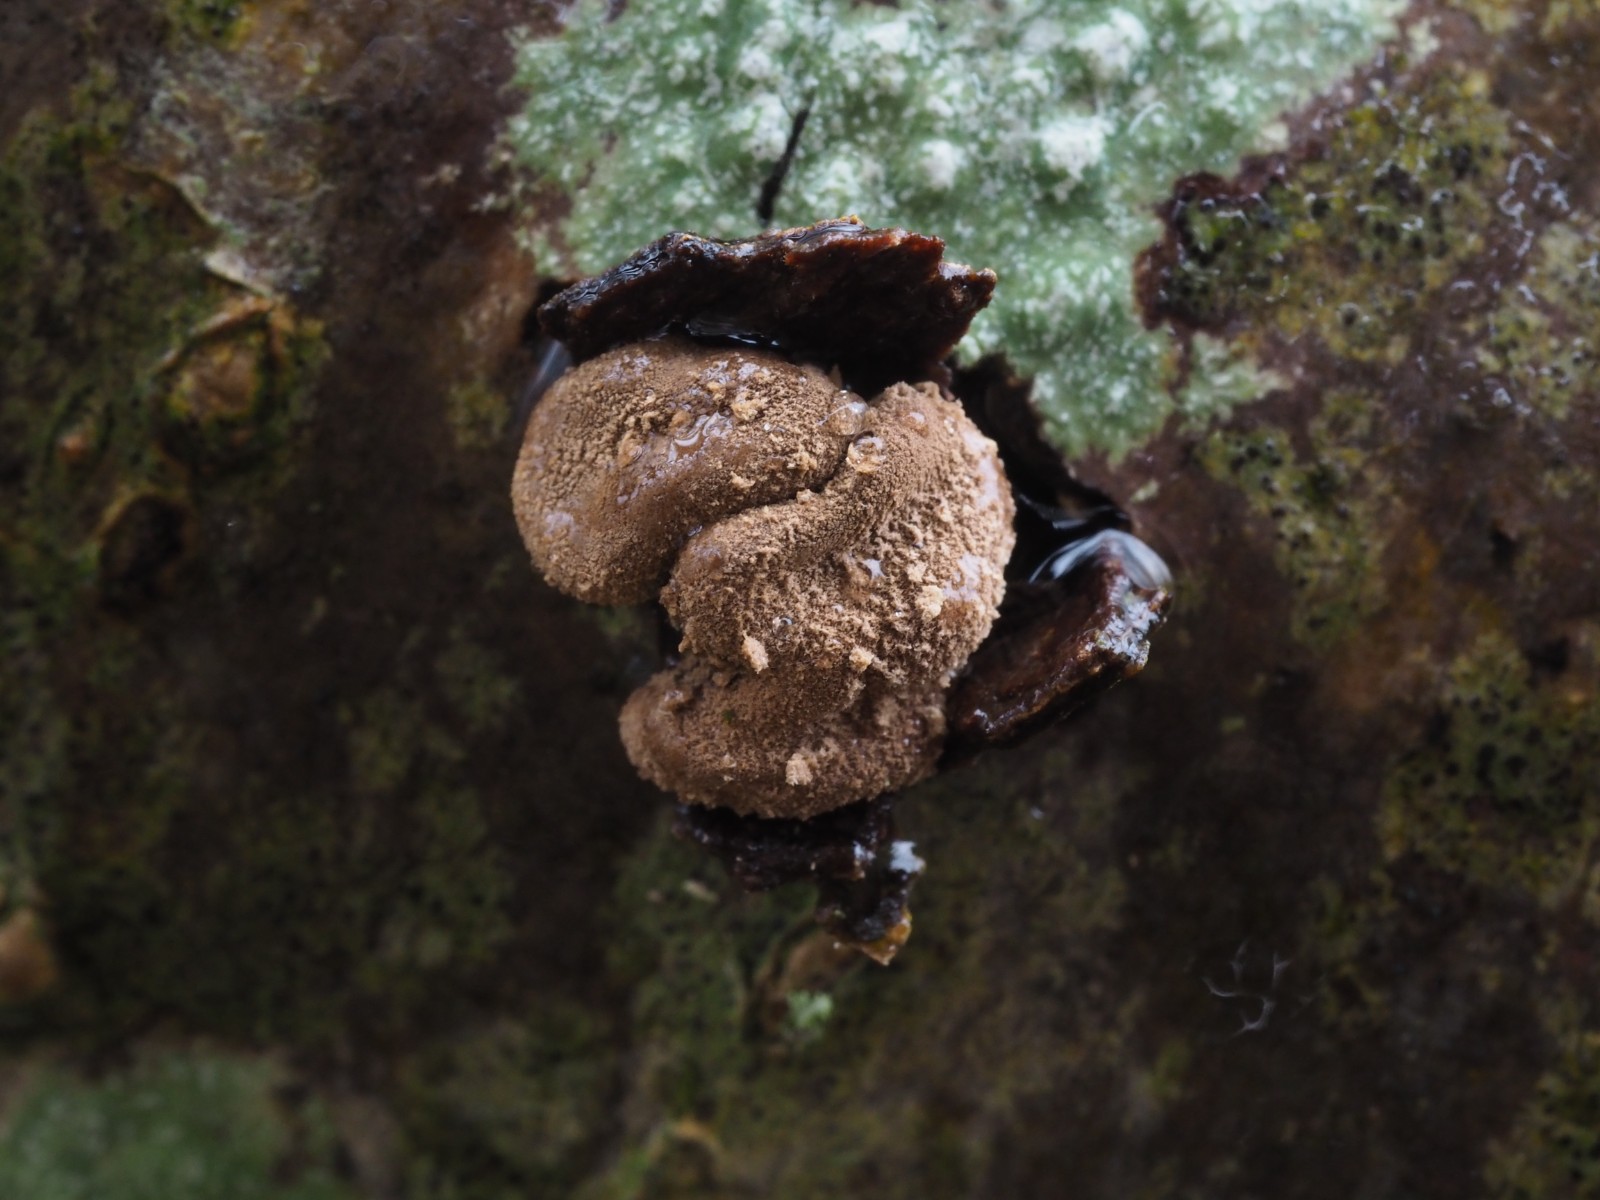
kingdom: Fungi
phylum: Ascomycota
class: Leotiomycetes
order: Helotiales
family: Cenangiaceae
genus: Encoelia
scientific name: Encoelia furfuracea
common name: hassel-læderskive
